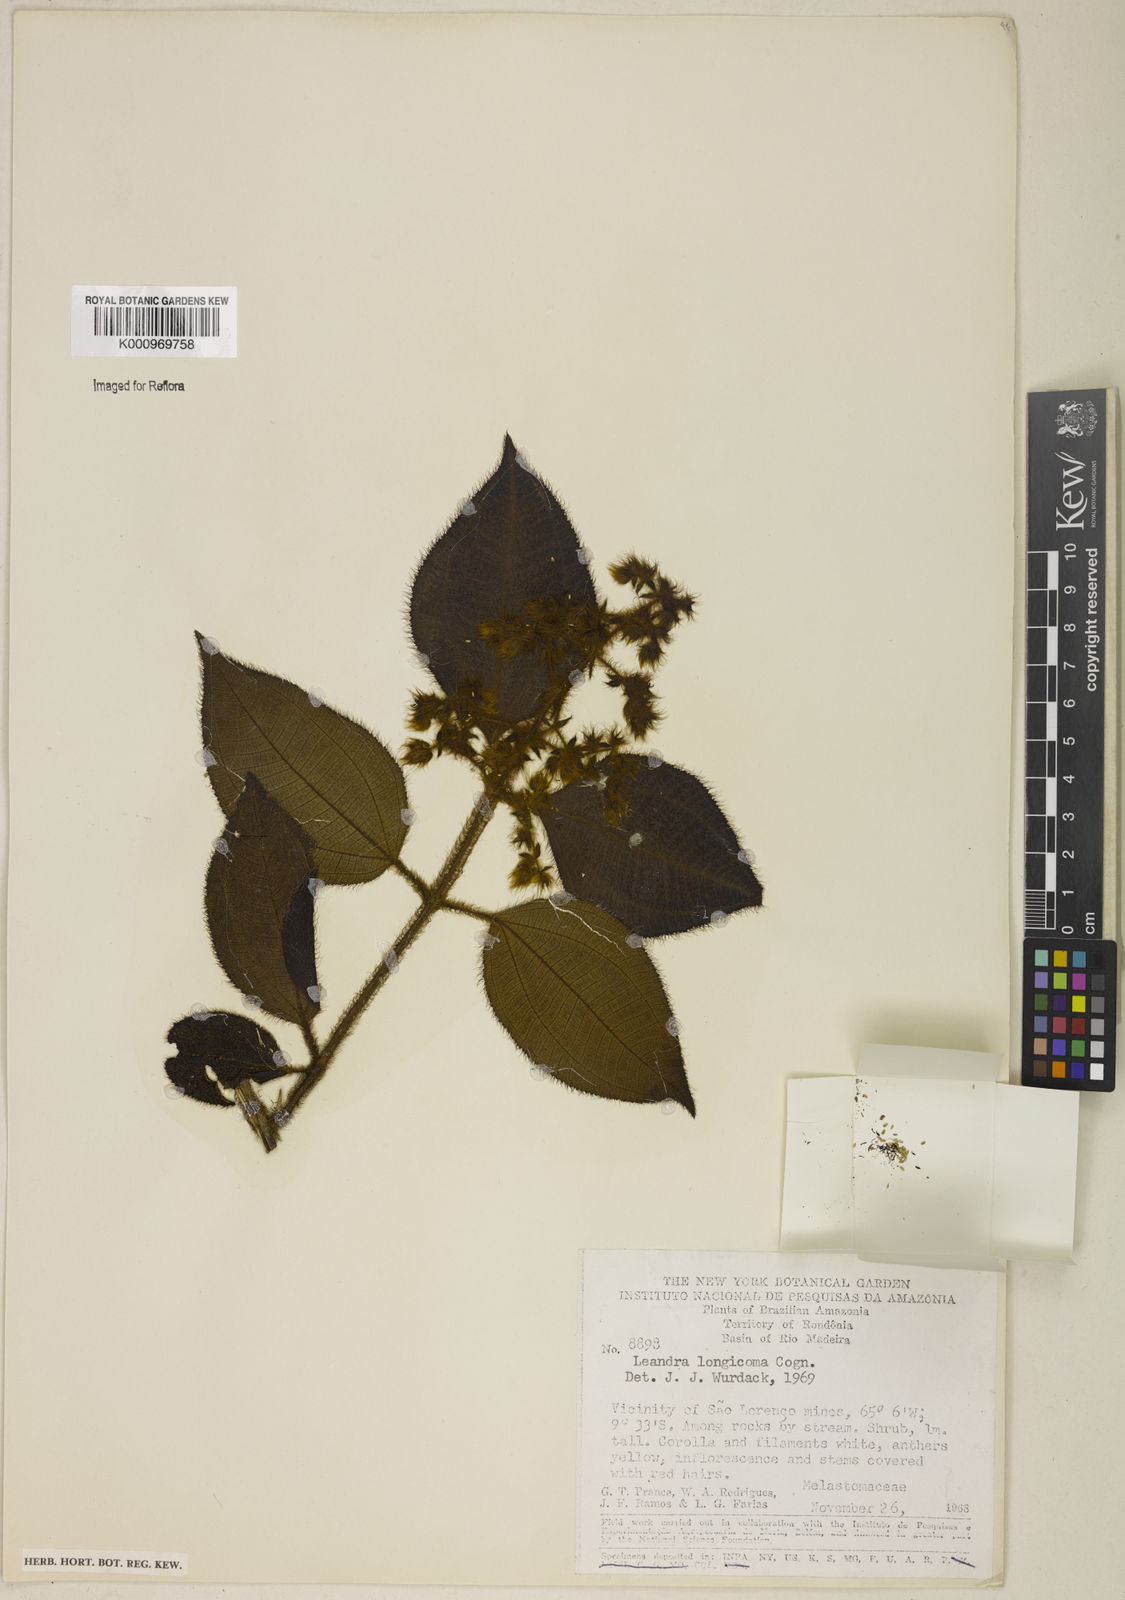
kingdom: Plantae
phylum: Tracheophyta
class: Magnoliopsida
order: Myrtales
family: Melastomataceae
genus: Miconia
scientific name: Miconia longicoma
